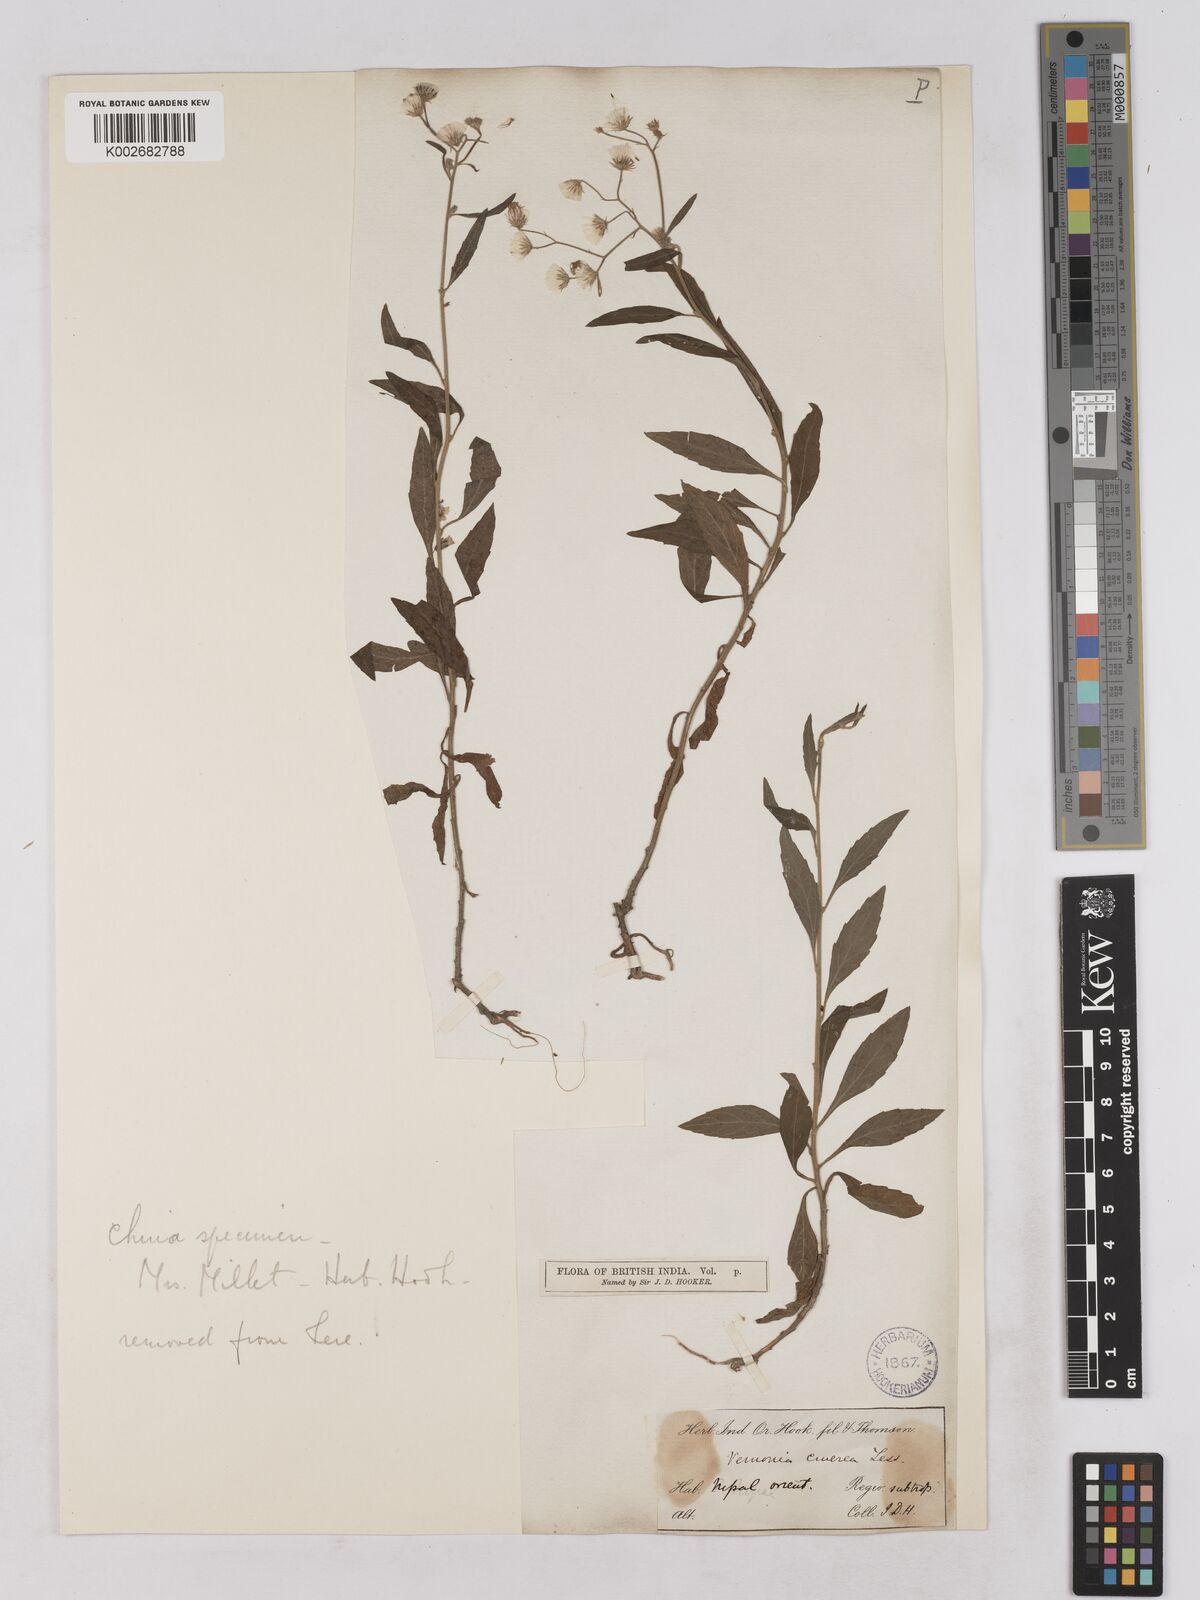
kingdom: Plantae
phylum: Tracheophyta
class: Magnoliopsida
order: Asterales
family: Asteraceae
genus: Cyanthillium
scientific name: Cyanthillium cinereum
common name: Little ironweed
